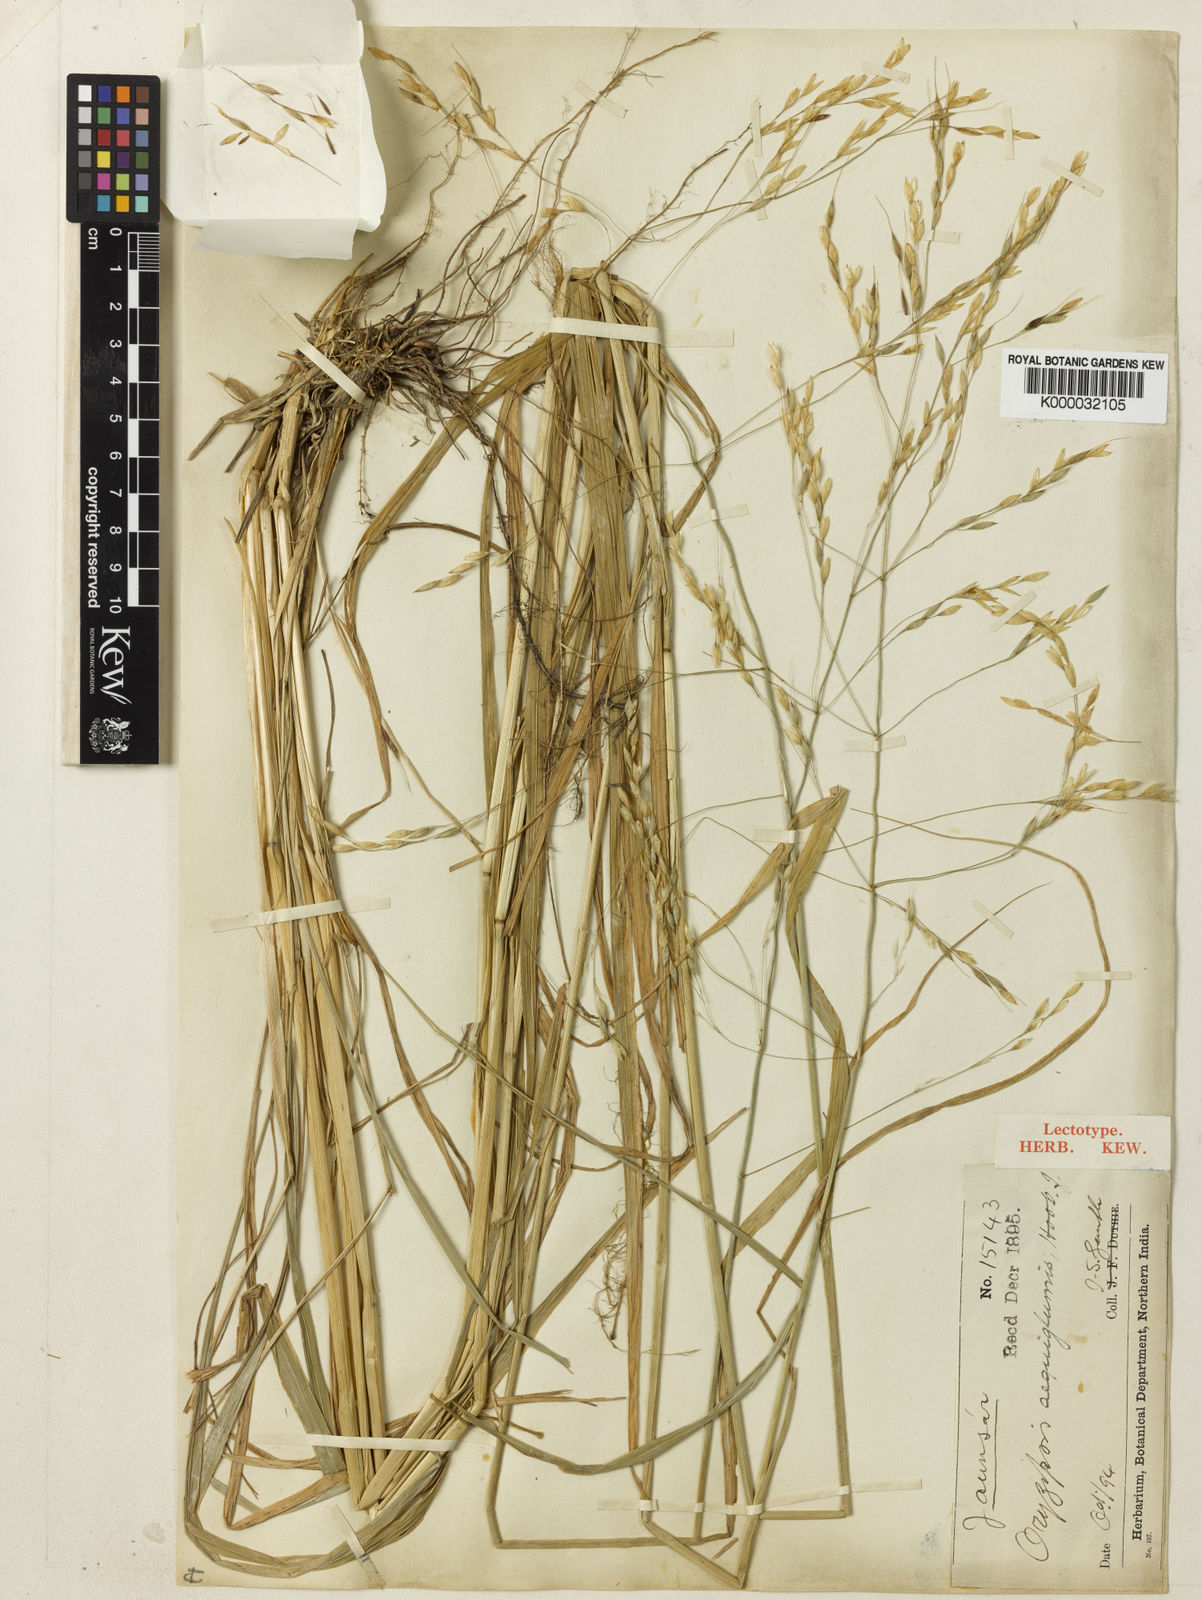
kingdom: Plantae
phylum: Tracheophyta
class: Liliopsida
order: Poales
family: Poaceae
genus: Piptatherum
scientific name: Piptatherum aequiglume
